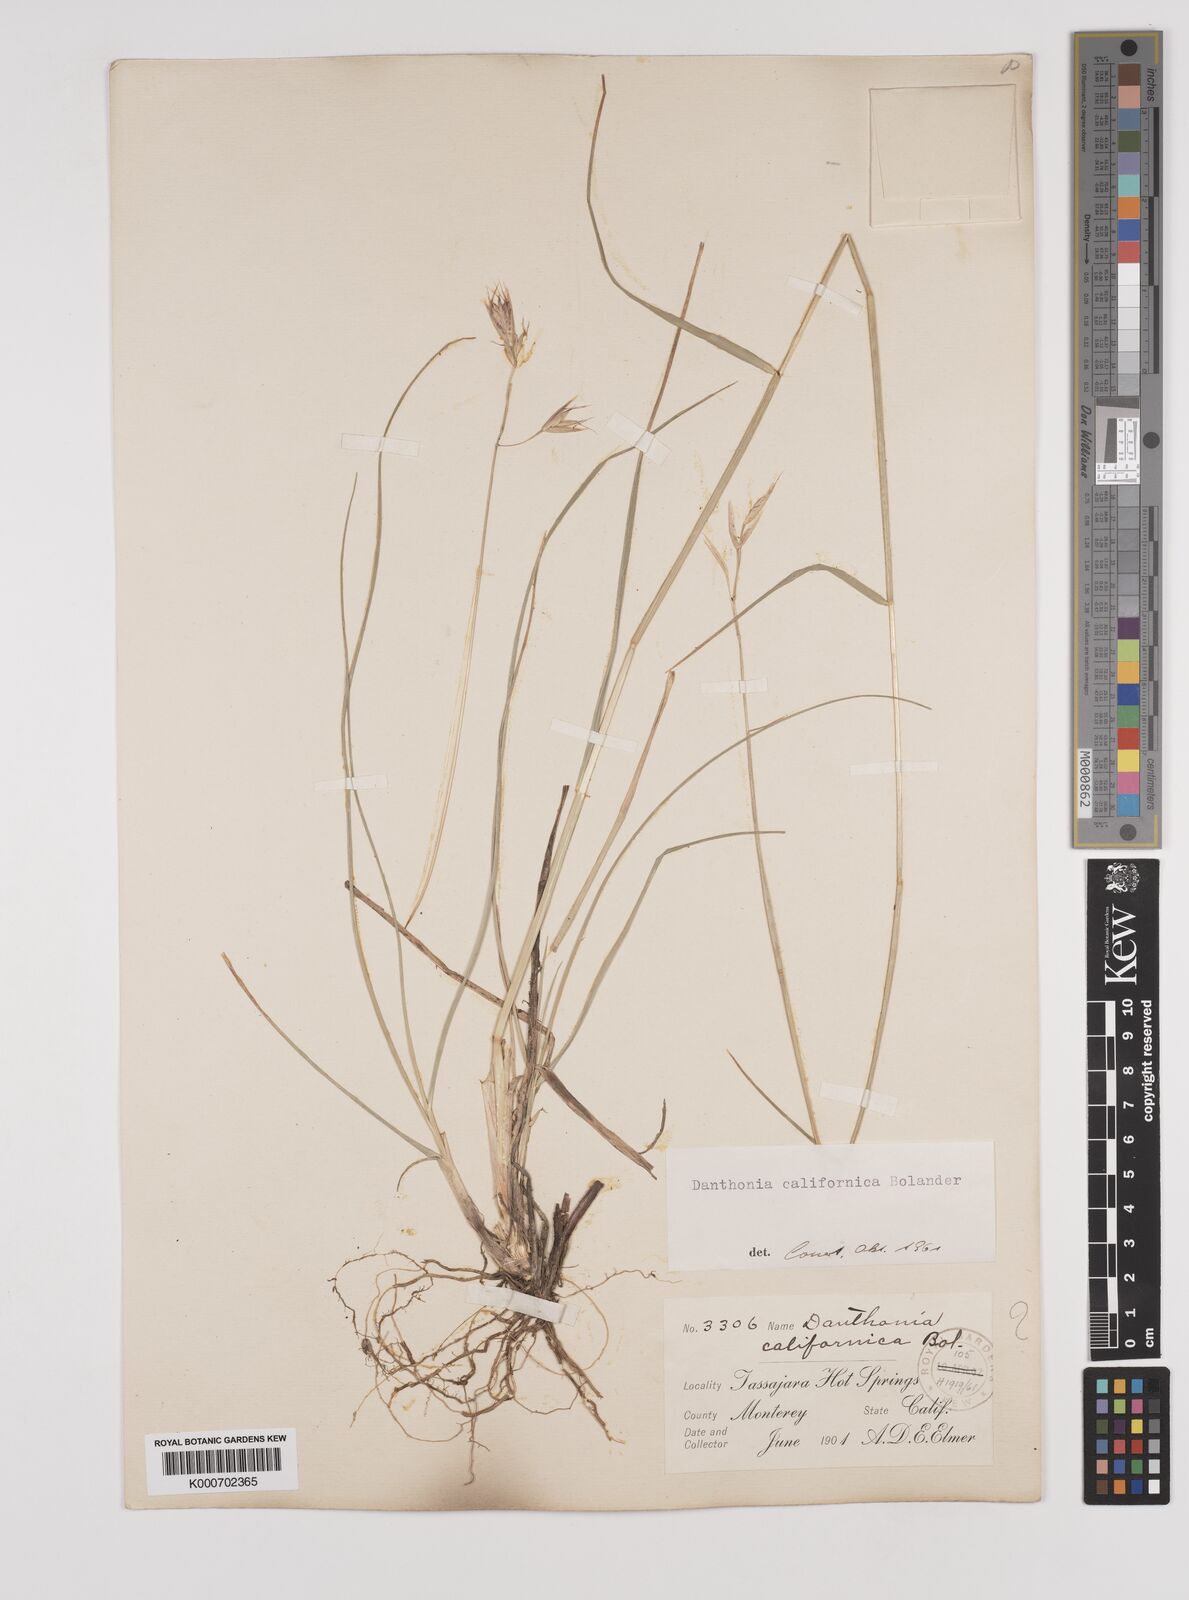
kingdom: Plantae
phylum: Tracheophyta
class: Liliopsida
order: Poales
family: Poaceae
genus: Danthonia
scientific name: Danthonia californica
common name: California oat grass
